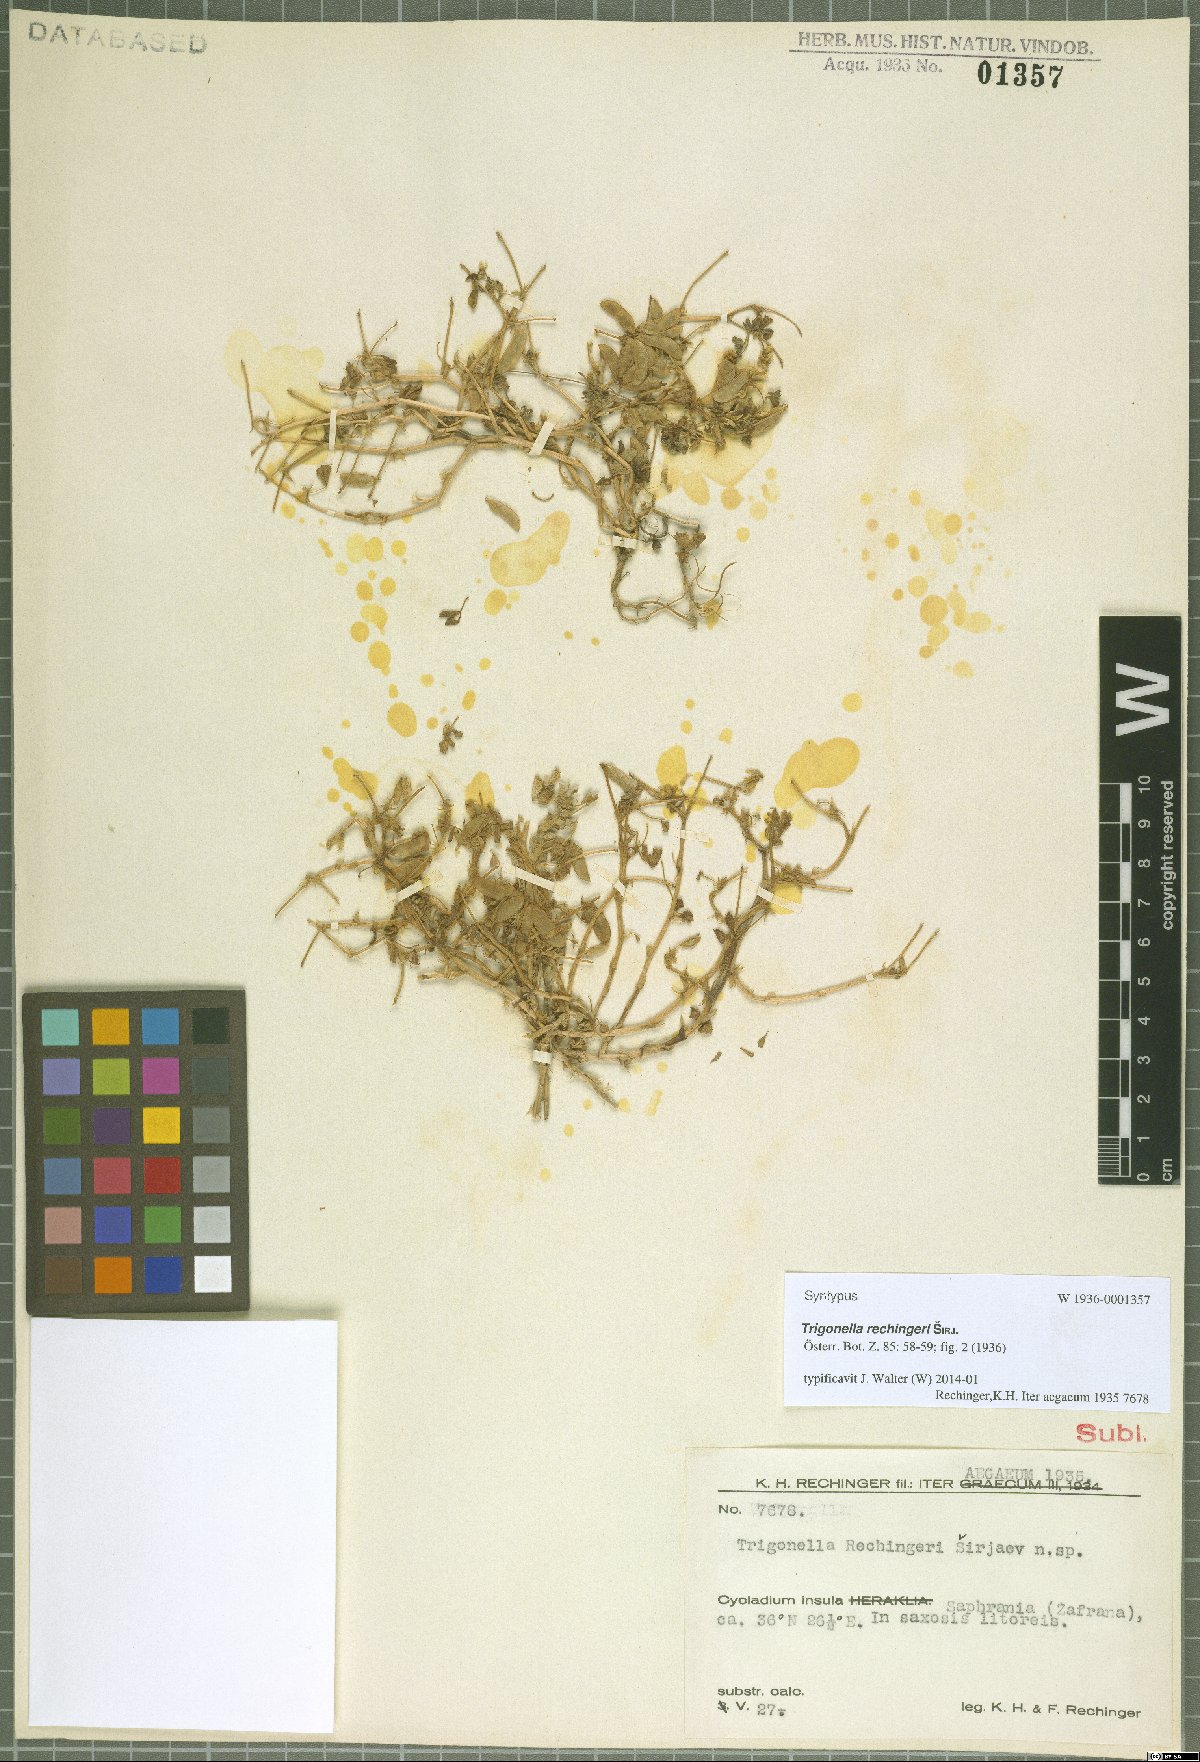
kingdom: Plantae
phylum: Tracheophyta
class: Magnoliopsida
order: Fabales
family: Fabaceae
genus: Trigonella
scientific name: Trigonella rechingeri
